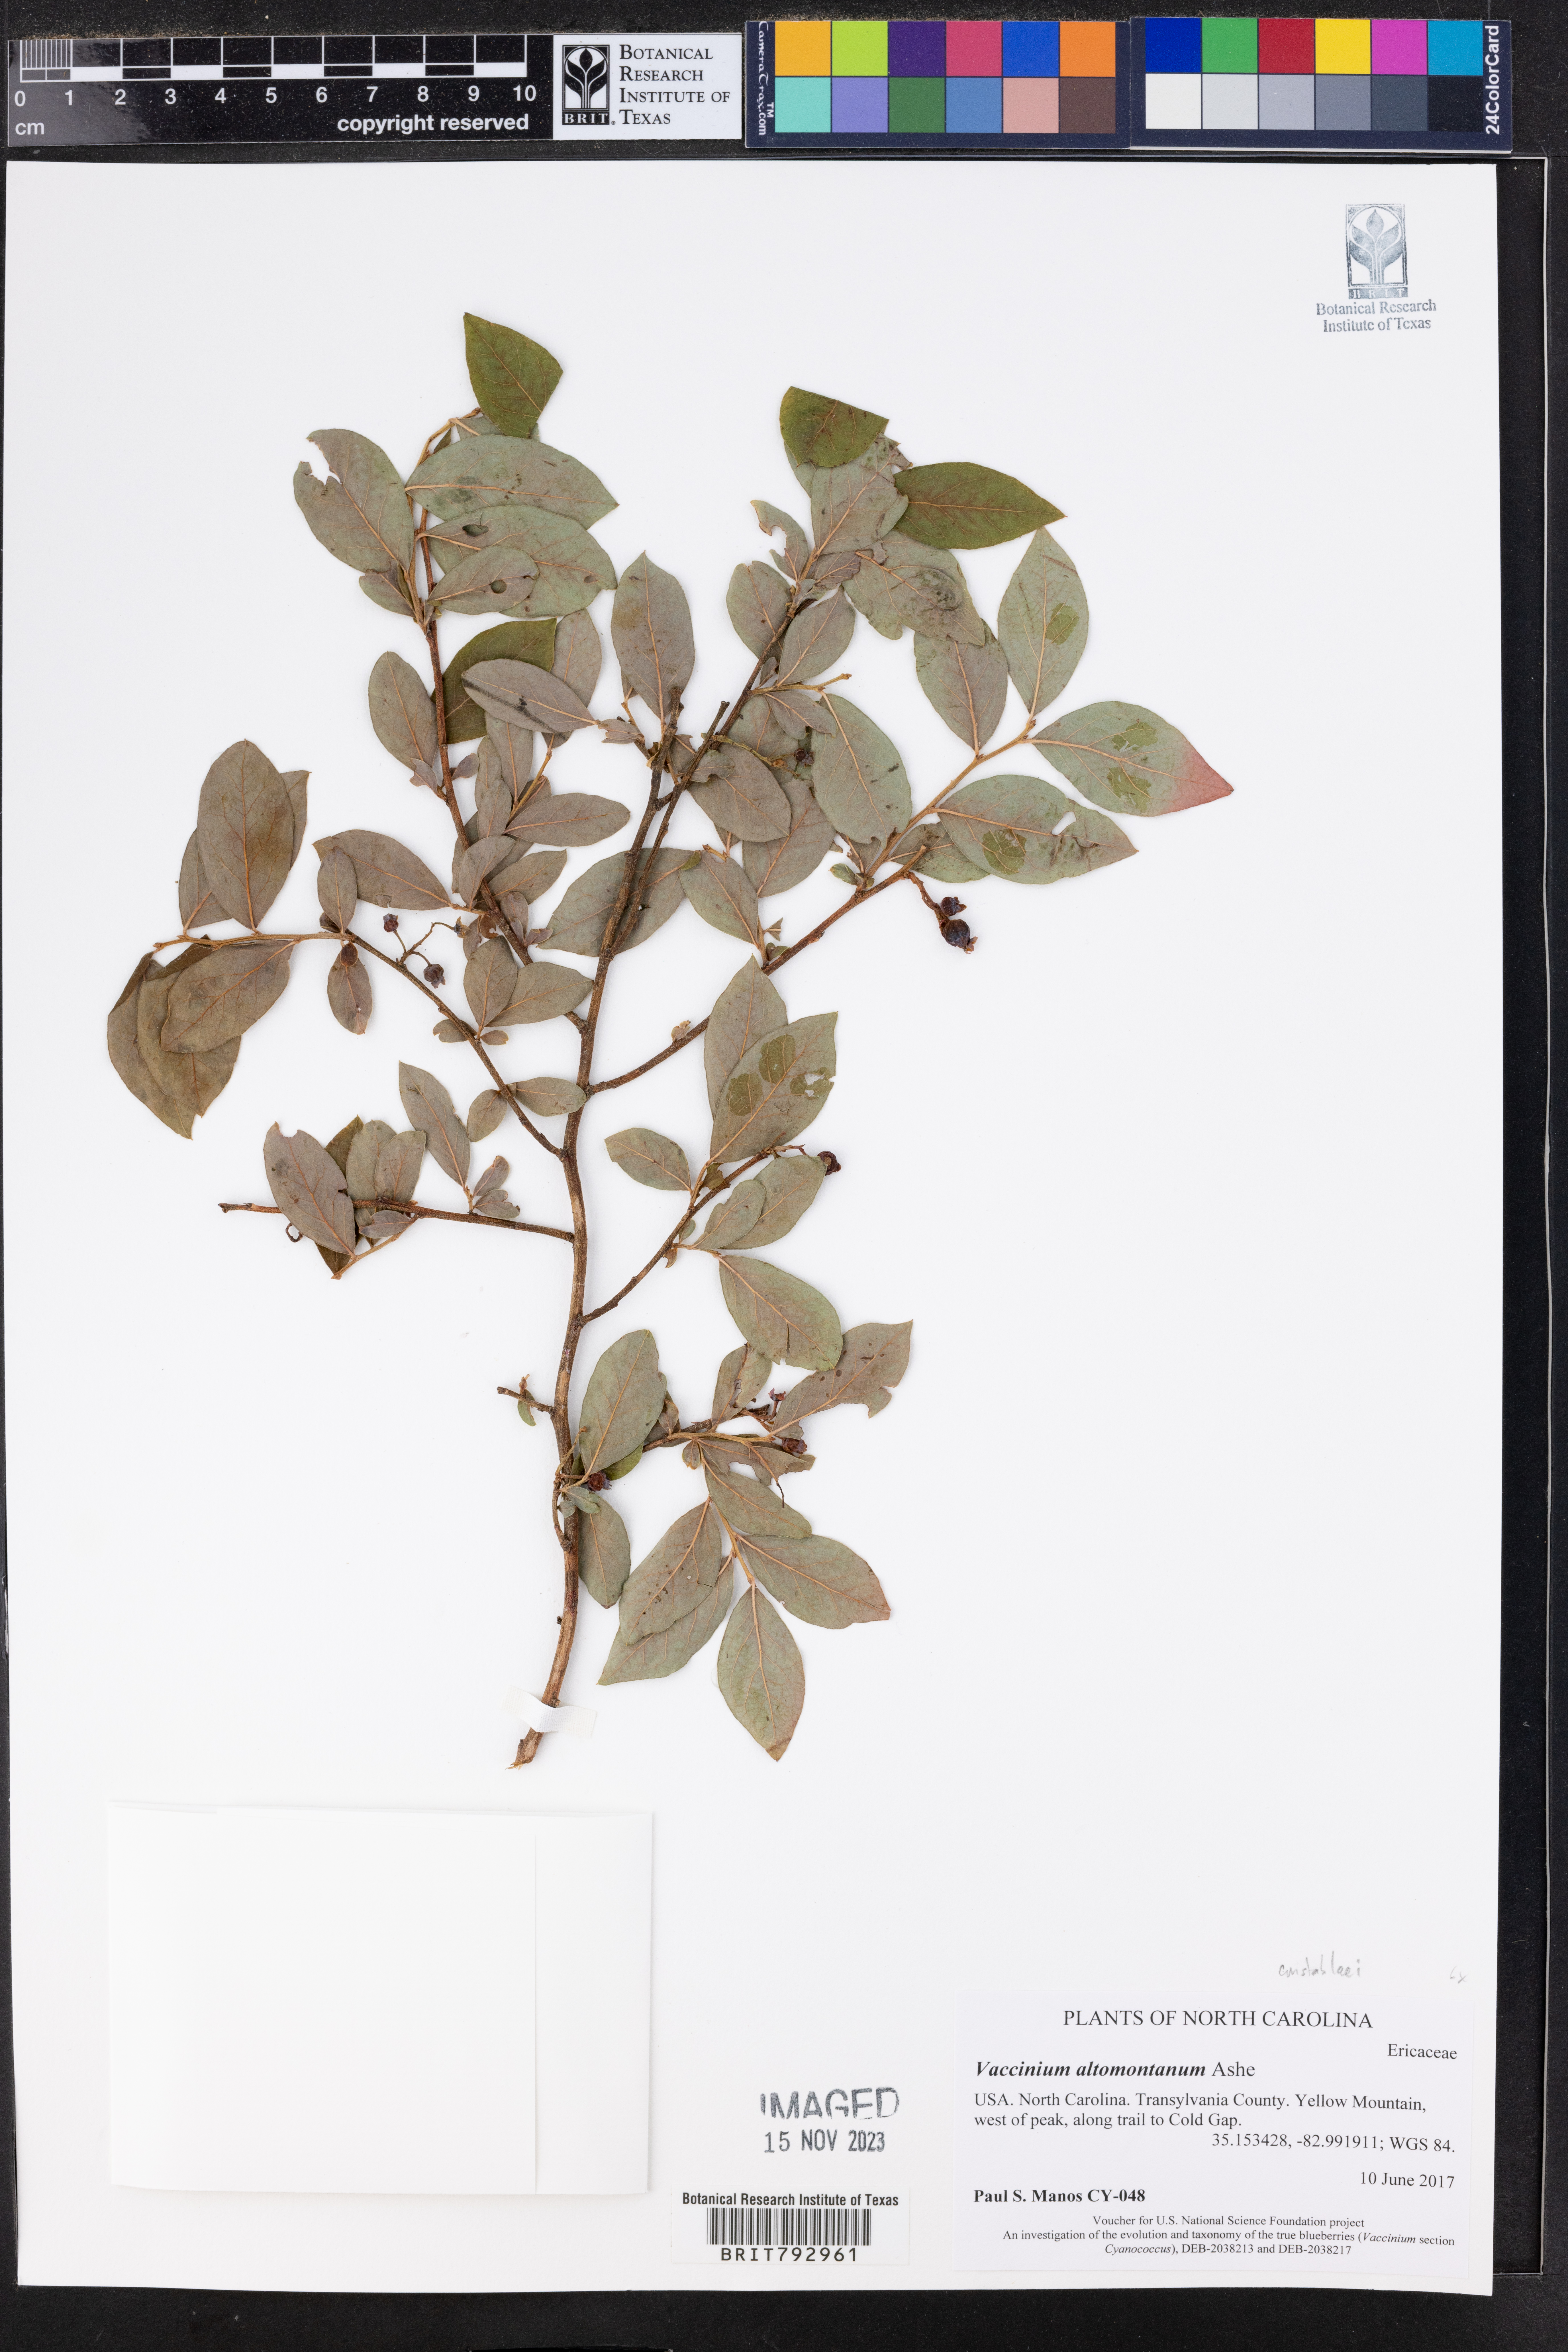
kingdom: Plantae
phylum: Tracheophyta
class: Magnoliopsida
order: Ericales
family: Ericaceae
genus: Vaccinium
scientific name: Vaccinium pallidum
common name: Blue ridge blueberry
